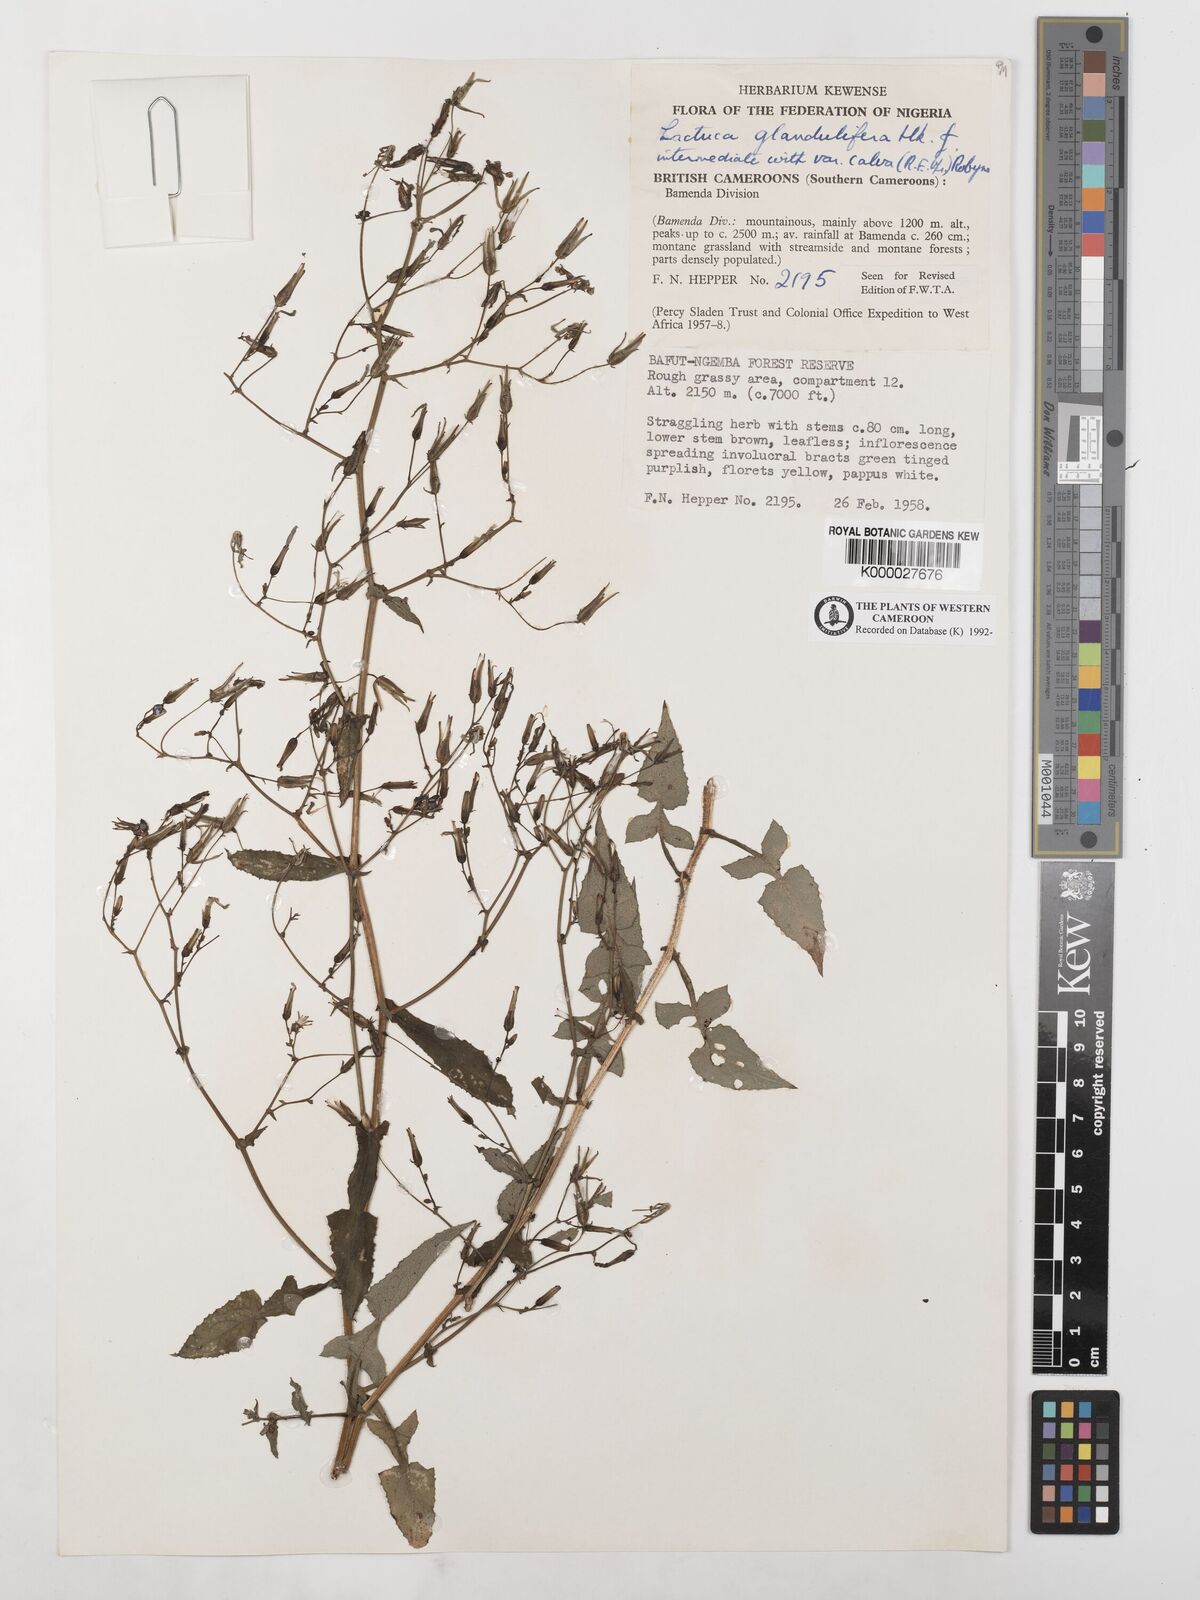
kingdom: Plantae
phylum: Tracheophyta
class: Magnoliopsida
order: Asterales
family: Asteraceae
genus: Lactuca
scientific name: Lactuca glandulifera
